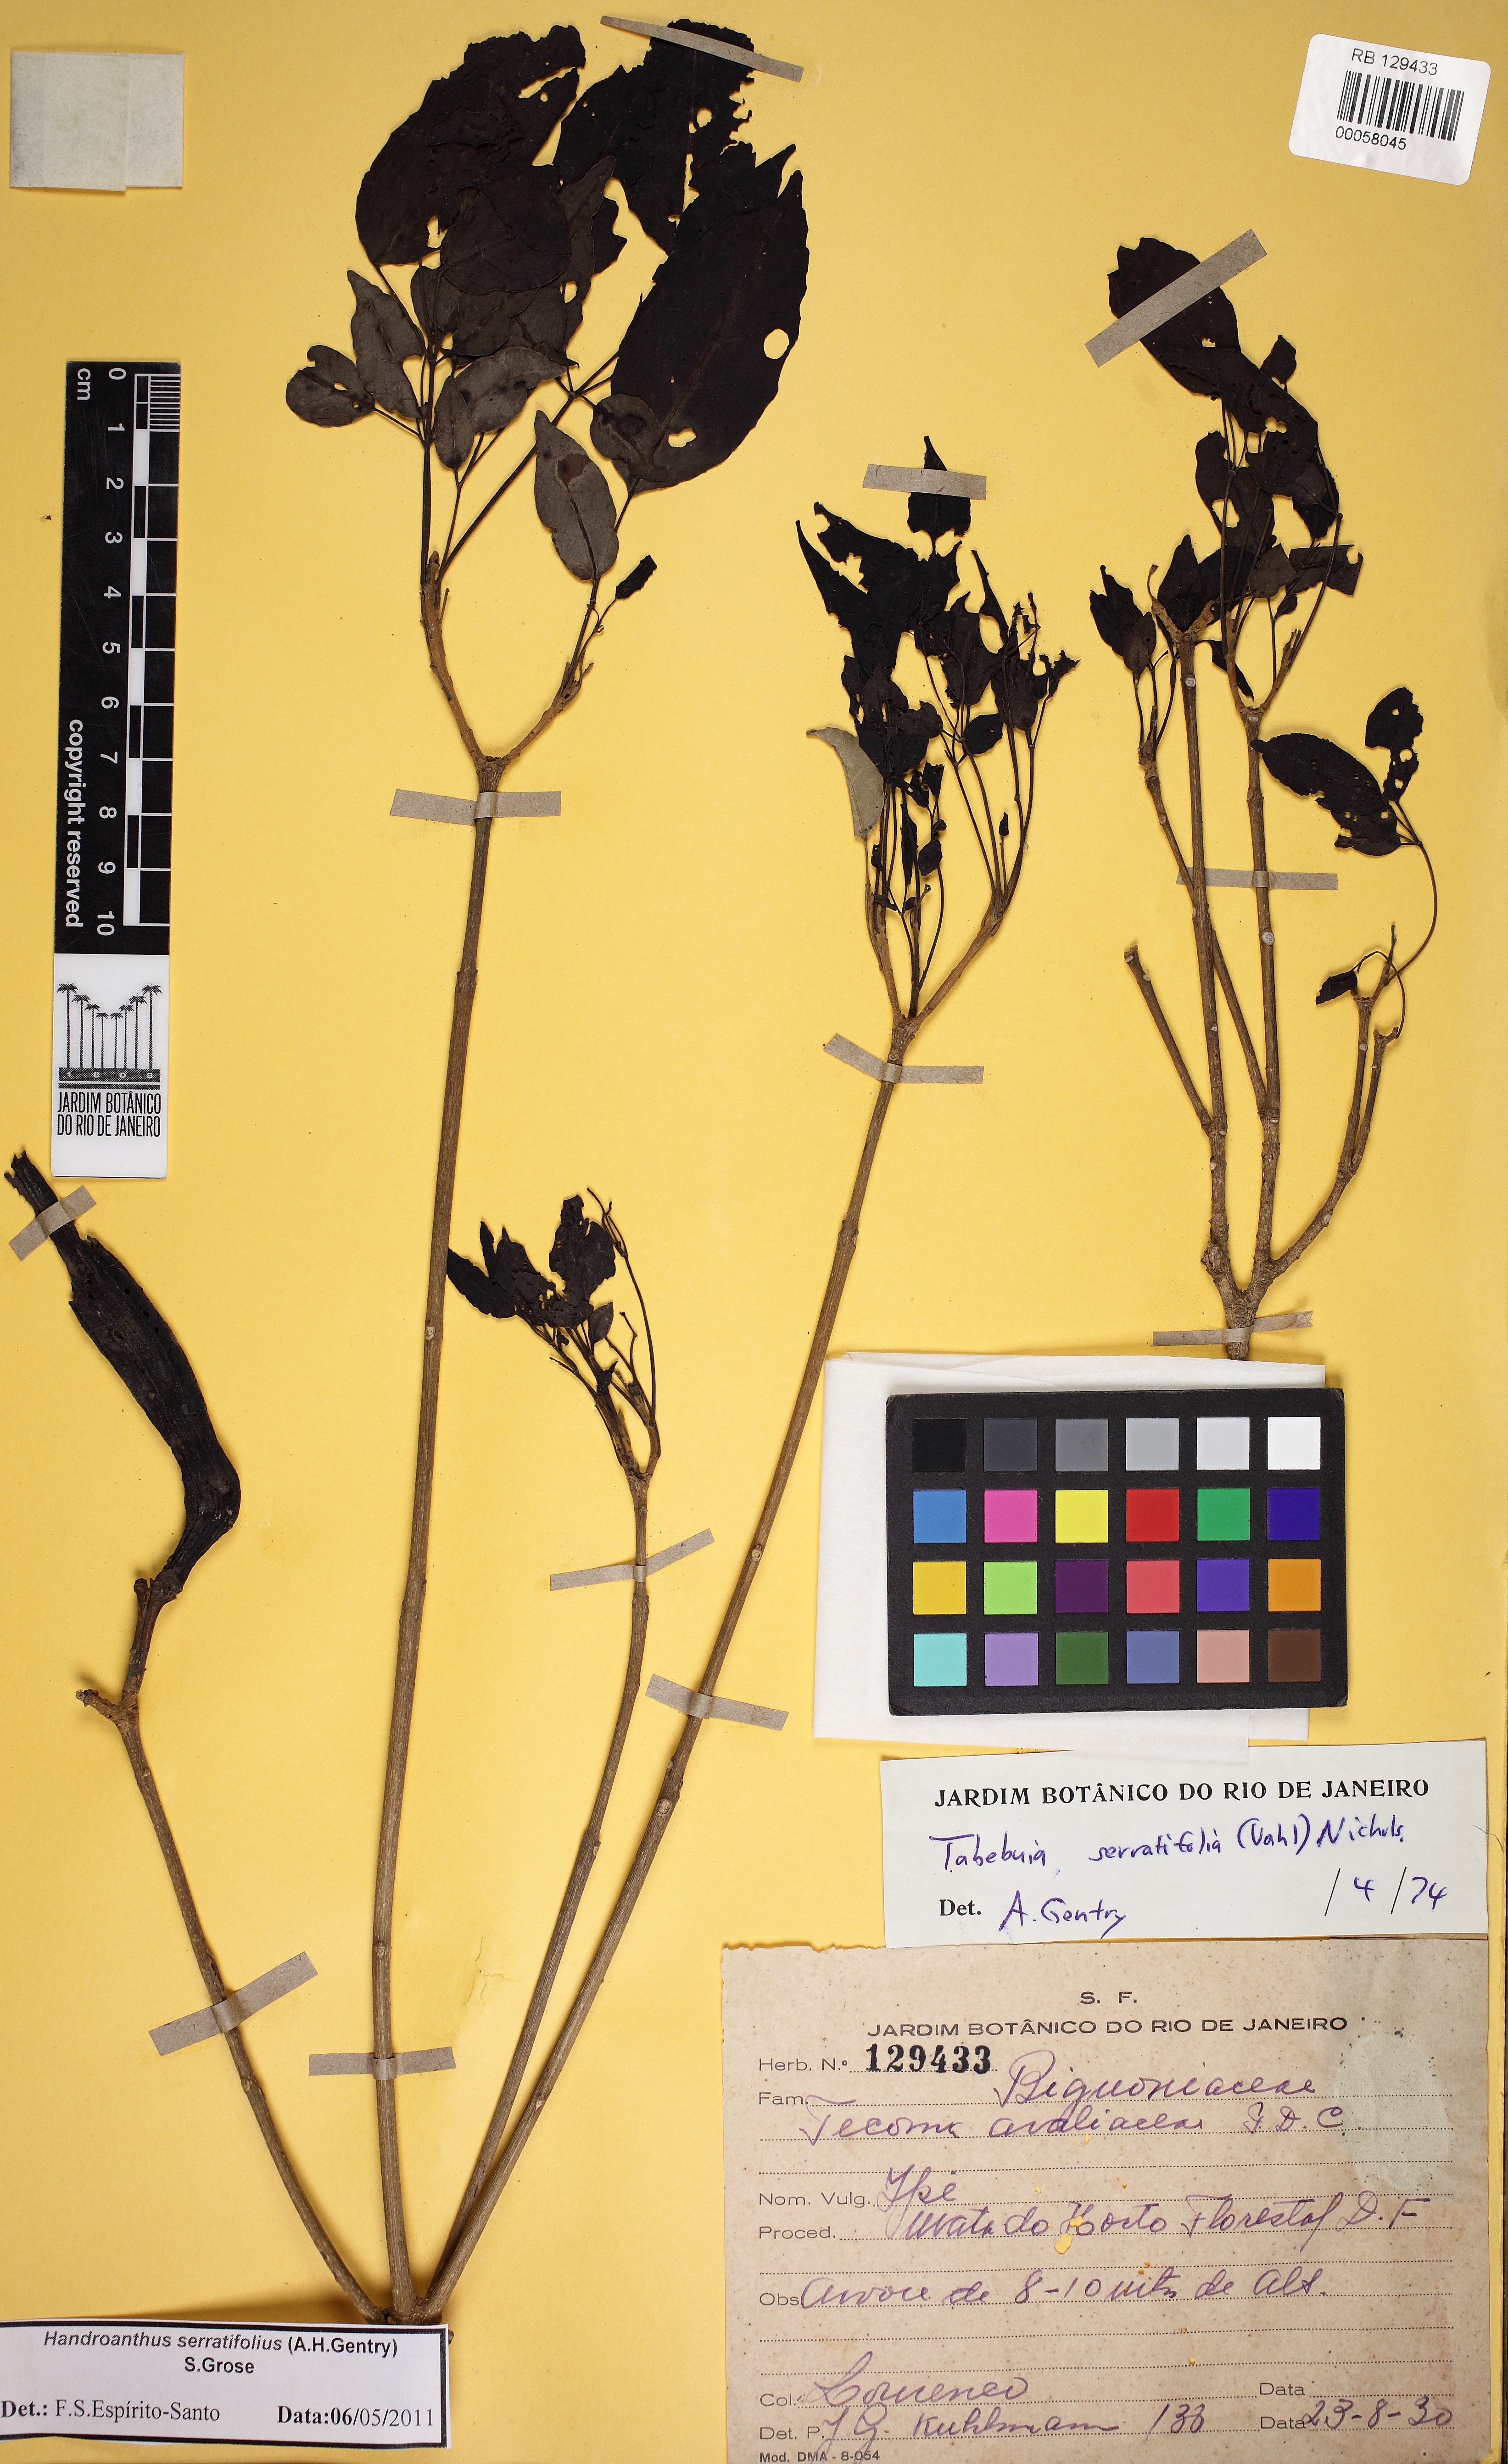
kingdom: Plantae
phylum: Tracheophyta
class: Magnoliopsida
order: Lamiales
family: Bignoniaceae
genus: Handroanthus
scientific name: Handroanthus serratifolius
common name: Yellow ipe
